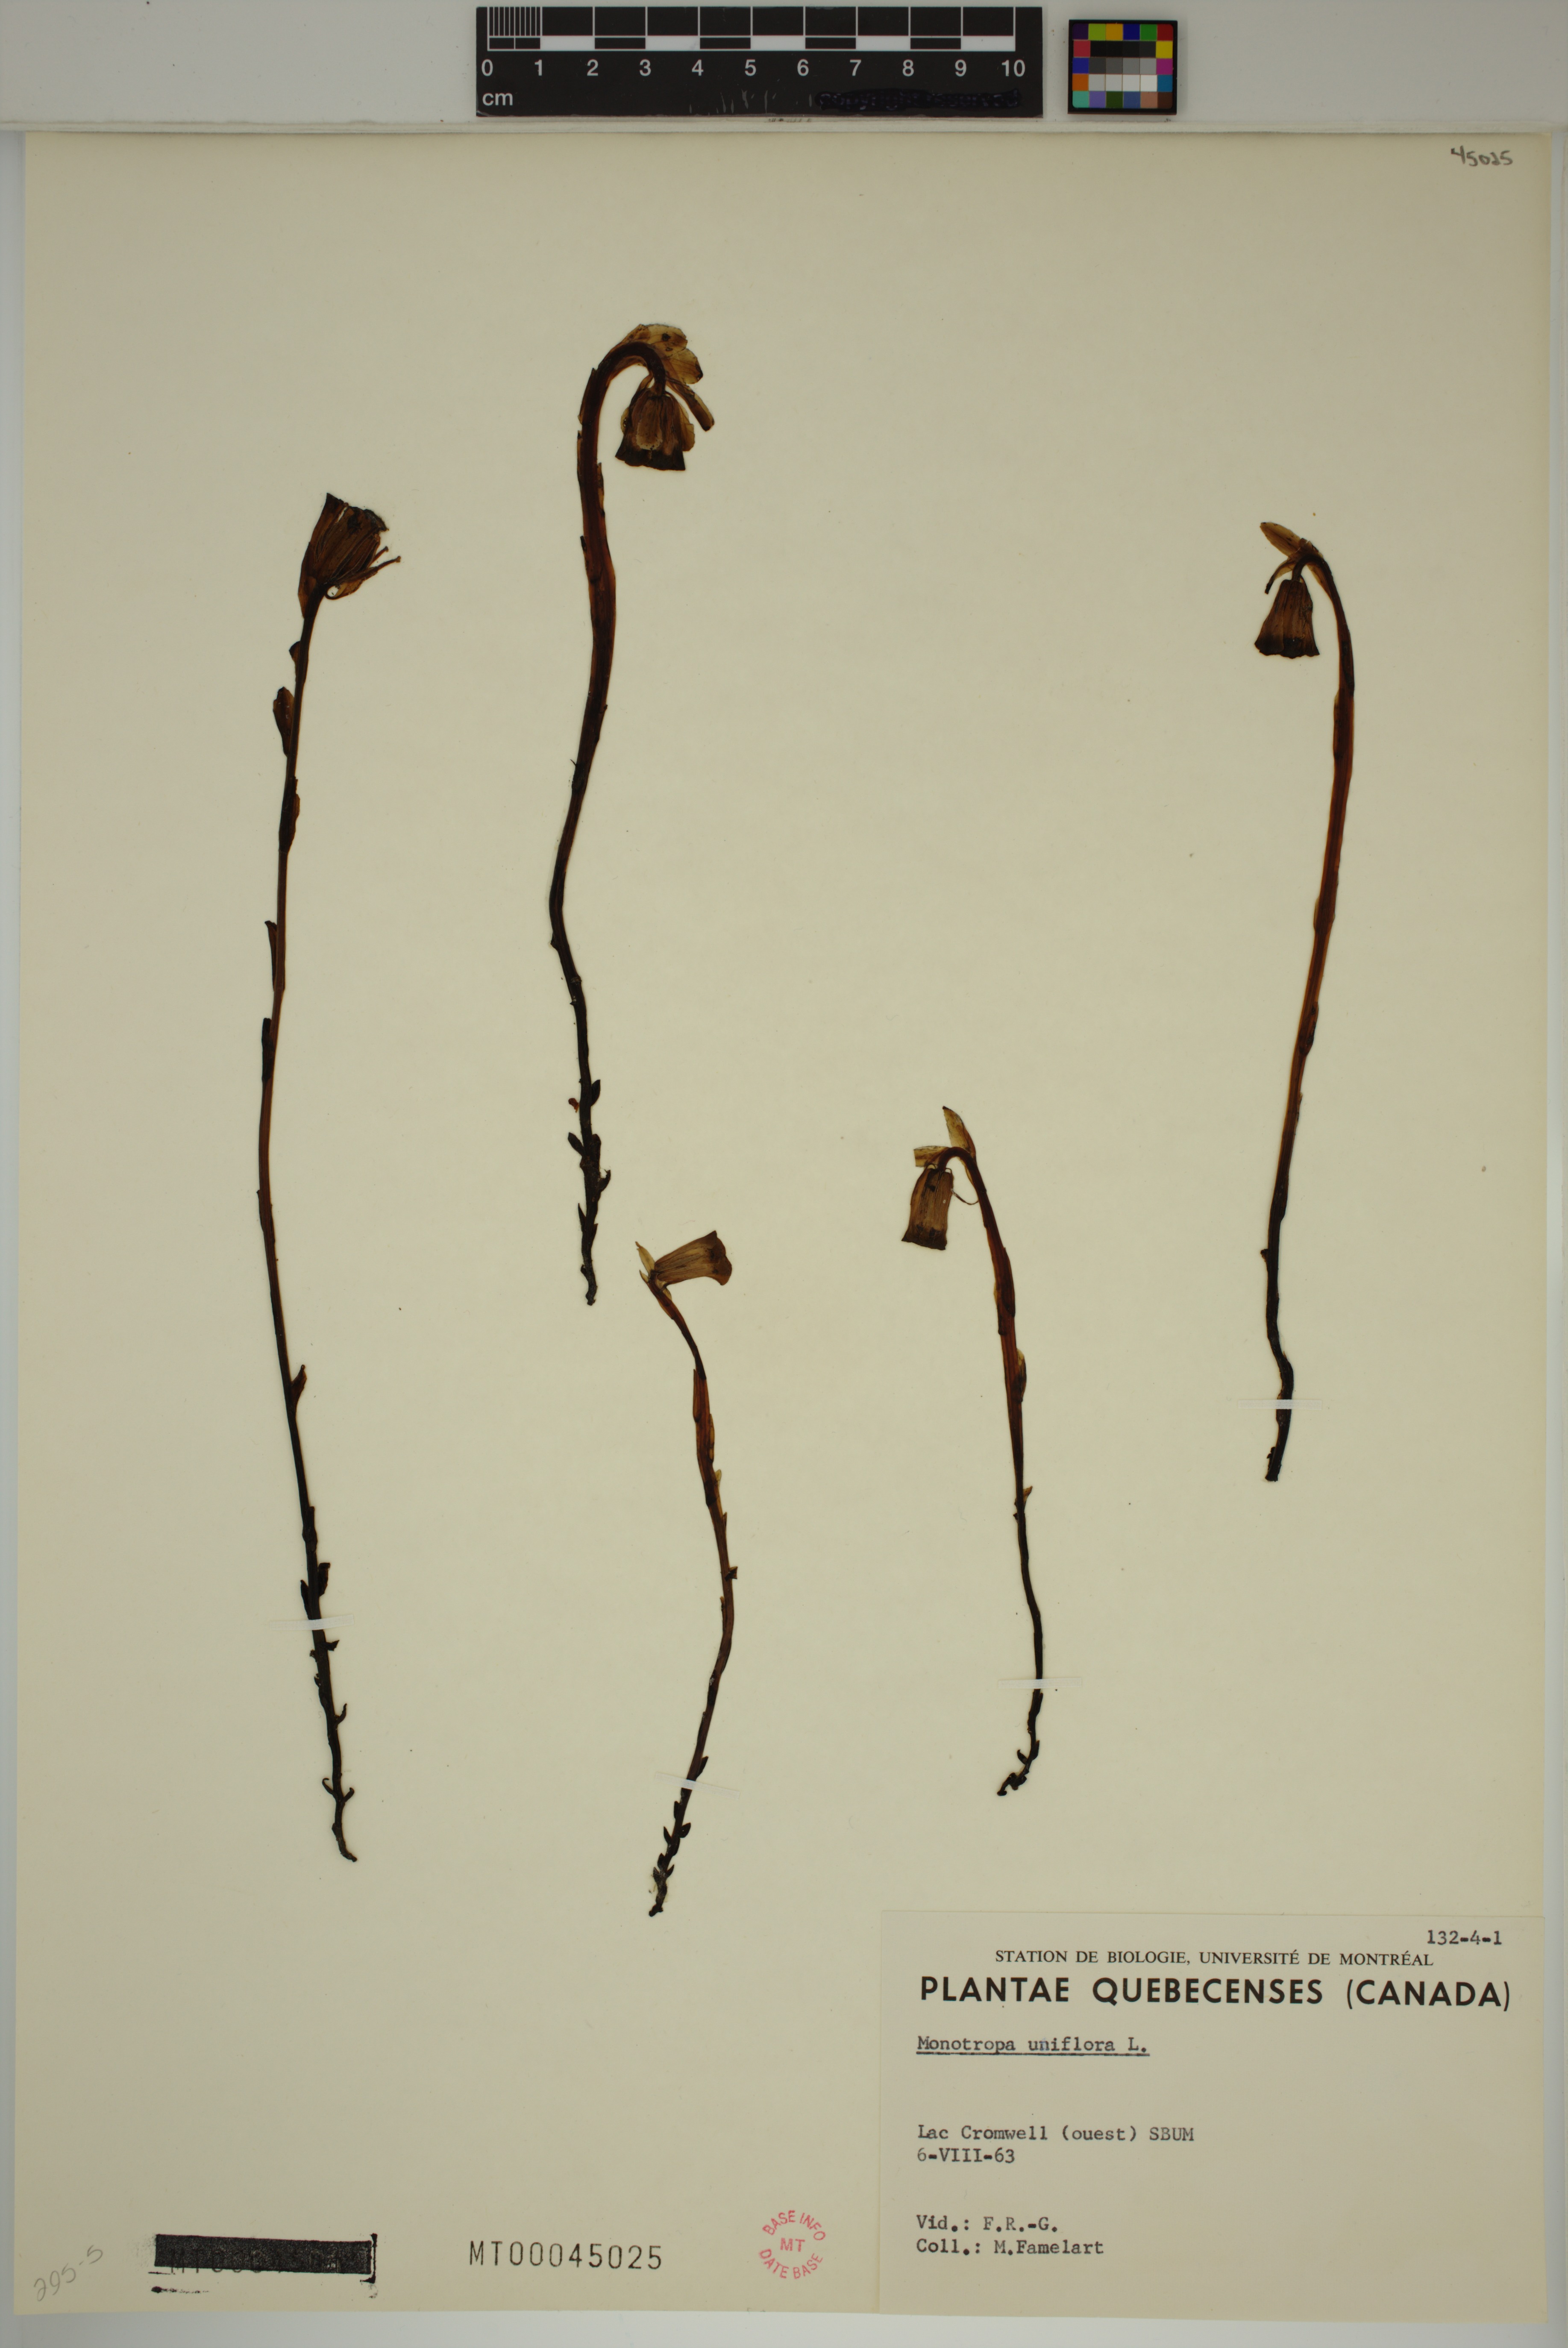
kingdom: Plantae
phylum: Tracheophyta
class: Magnoliopsida
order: Ericales
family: Ericaceae
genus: Monotropa
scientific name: Monotropa uniflora
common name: Convulsion root
